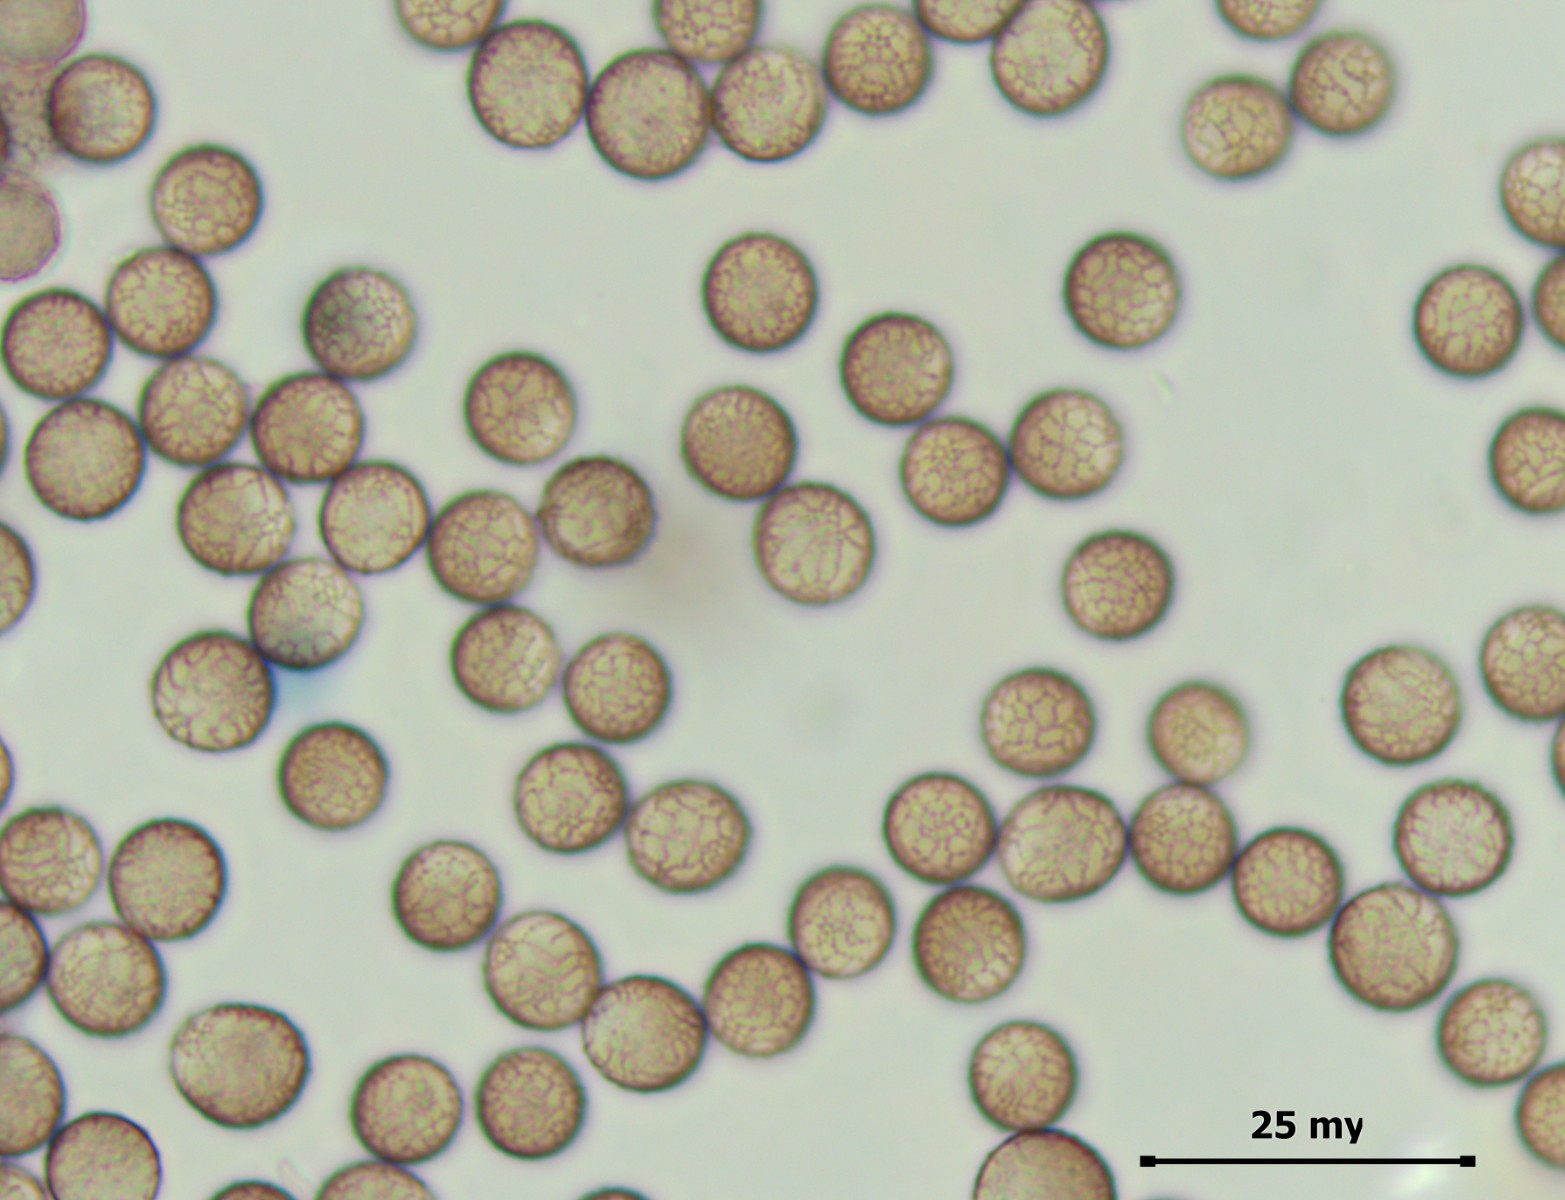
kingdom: Protozoa
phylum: Mycetozoa
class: Myxomycetes
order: Stemonitidales
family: Stemonitidaceae
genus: Stemonitis
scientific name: Stemonitis fusca
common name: sodbrun støvkølle
